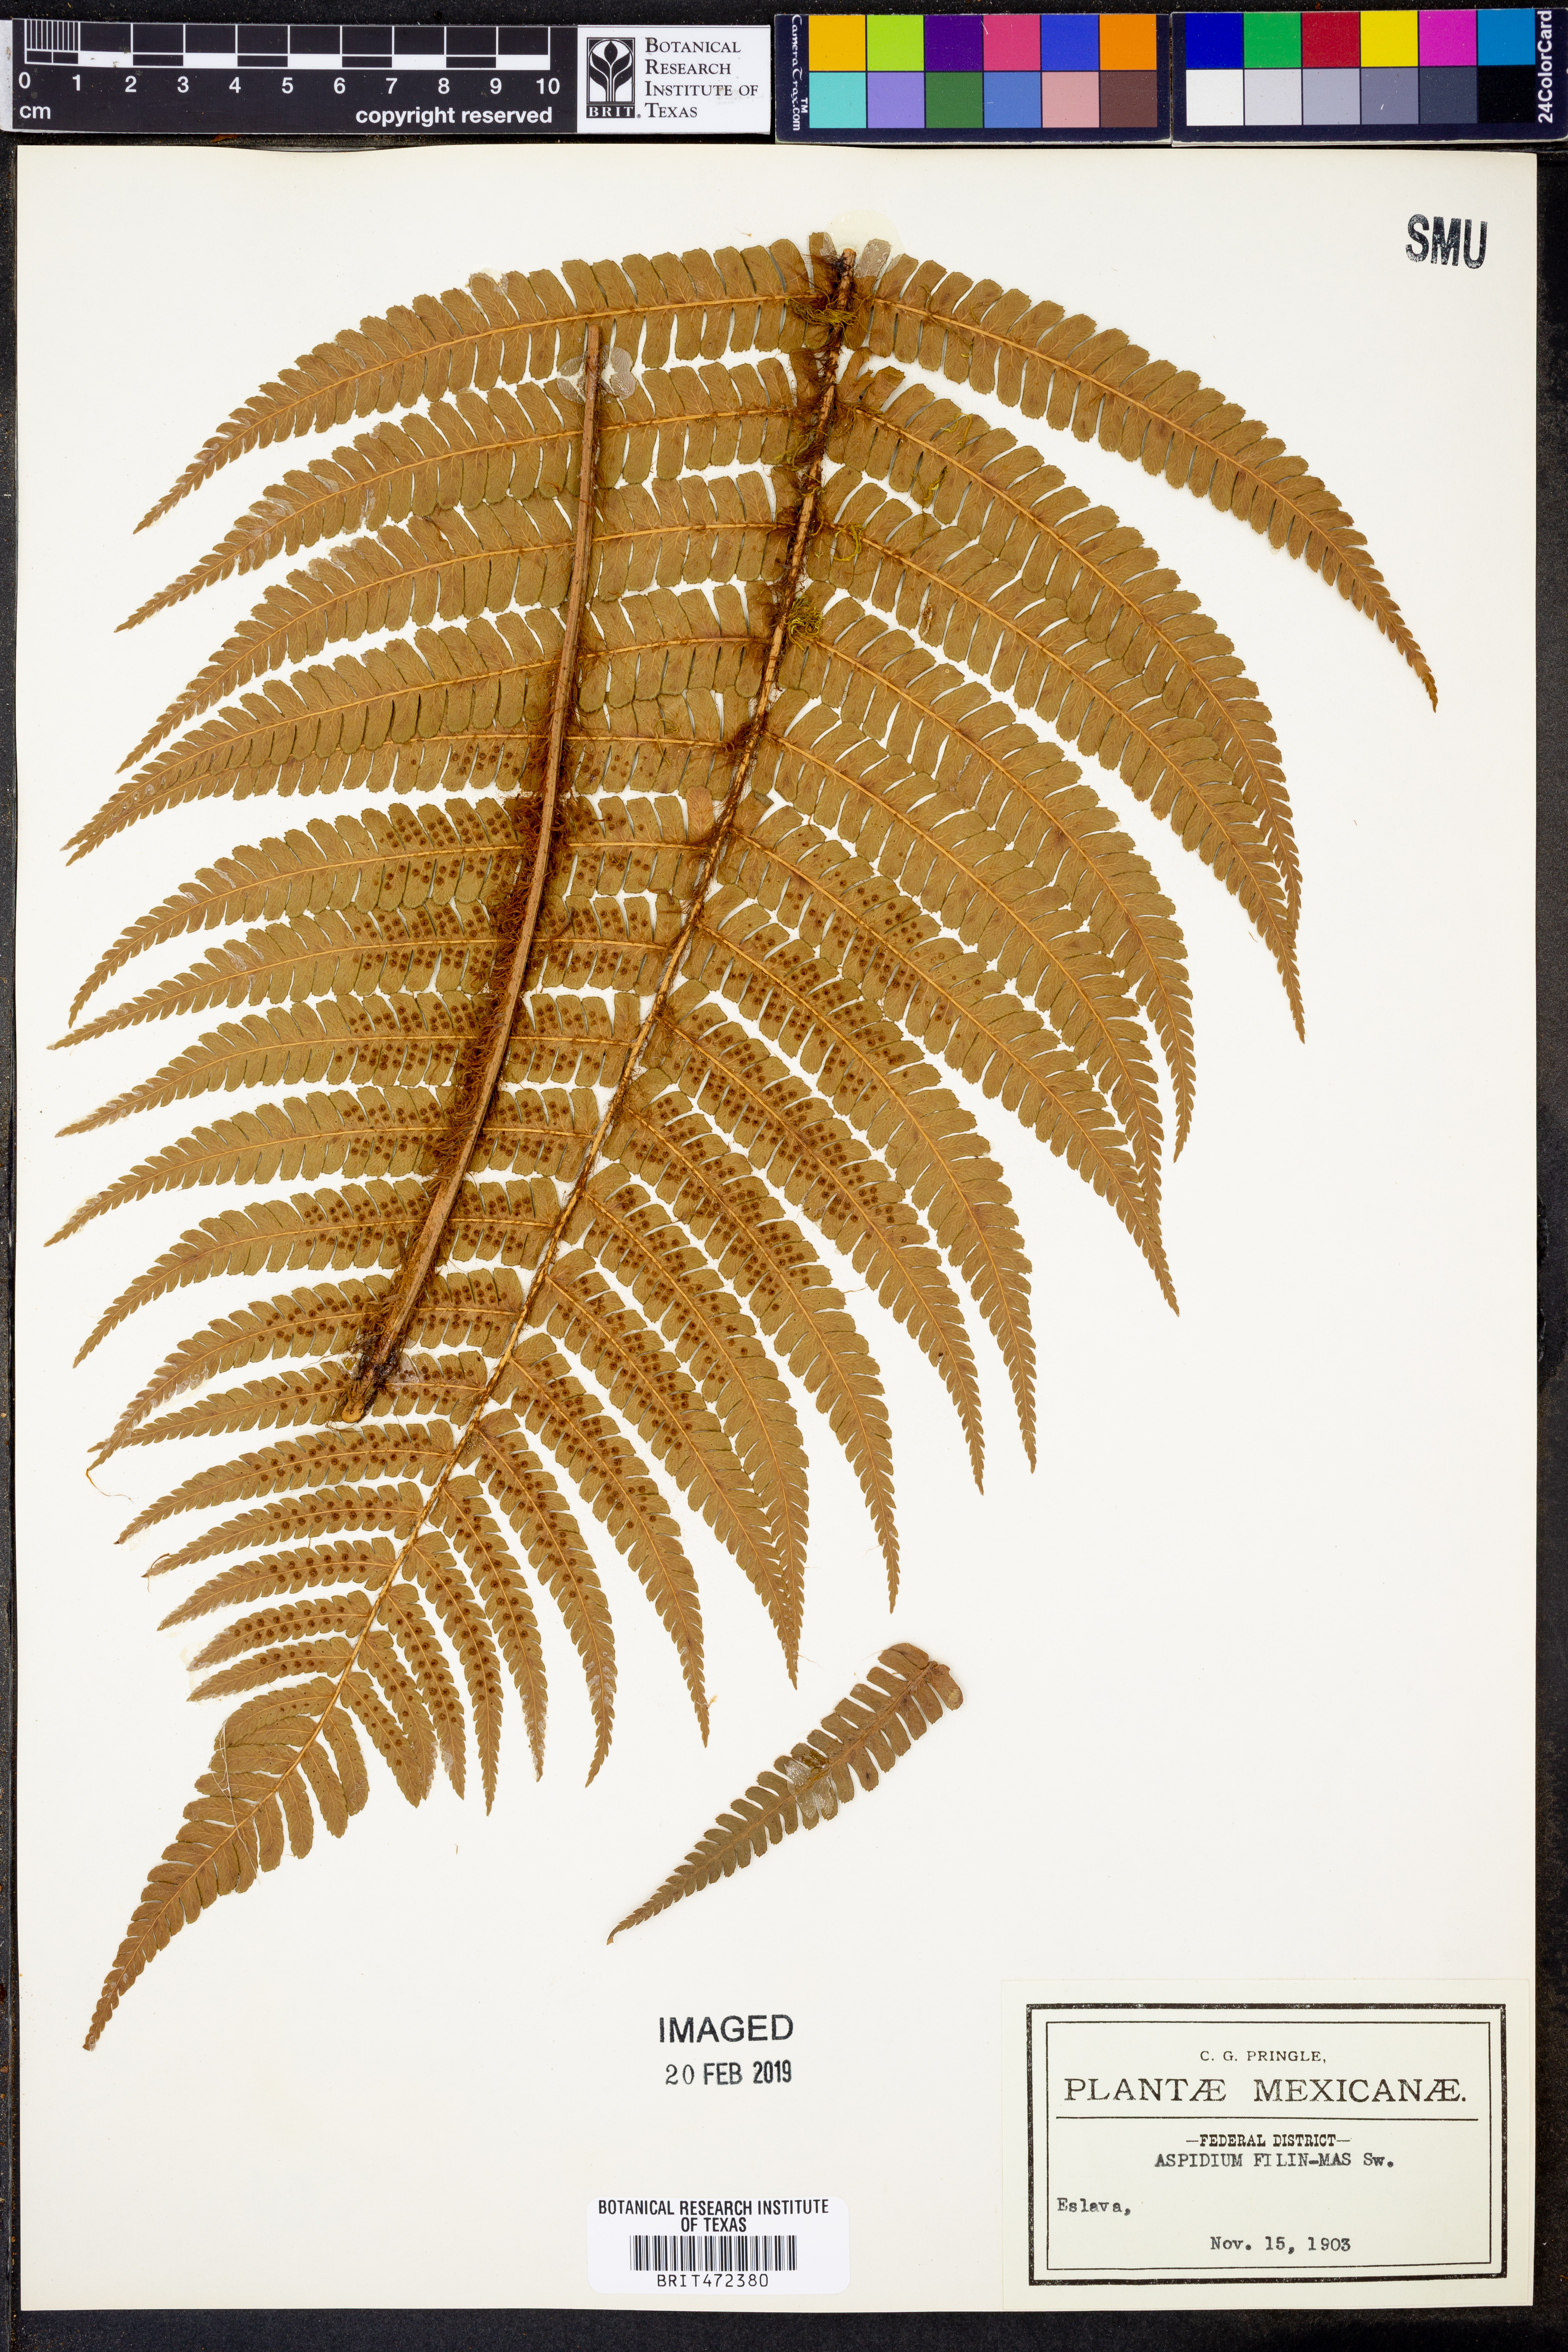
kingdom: Plantae
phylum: Tracheophyta
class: Polypodiopsida
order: Polypodiales
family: Dryopteridaceae
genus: Dryopteris
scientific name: Dryopteris wallichiana
